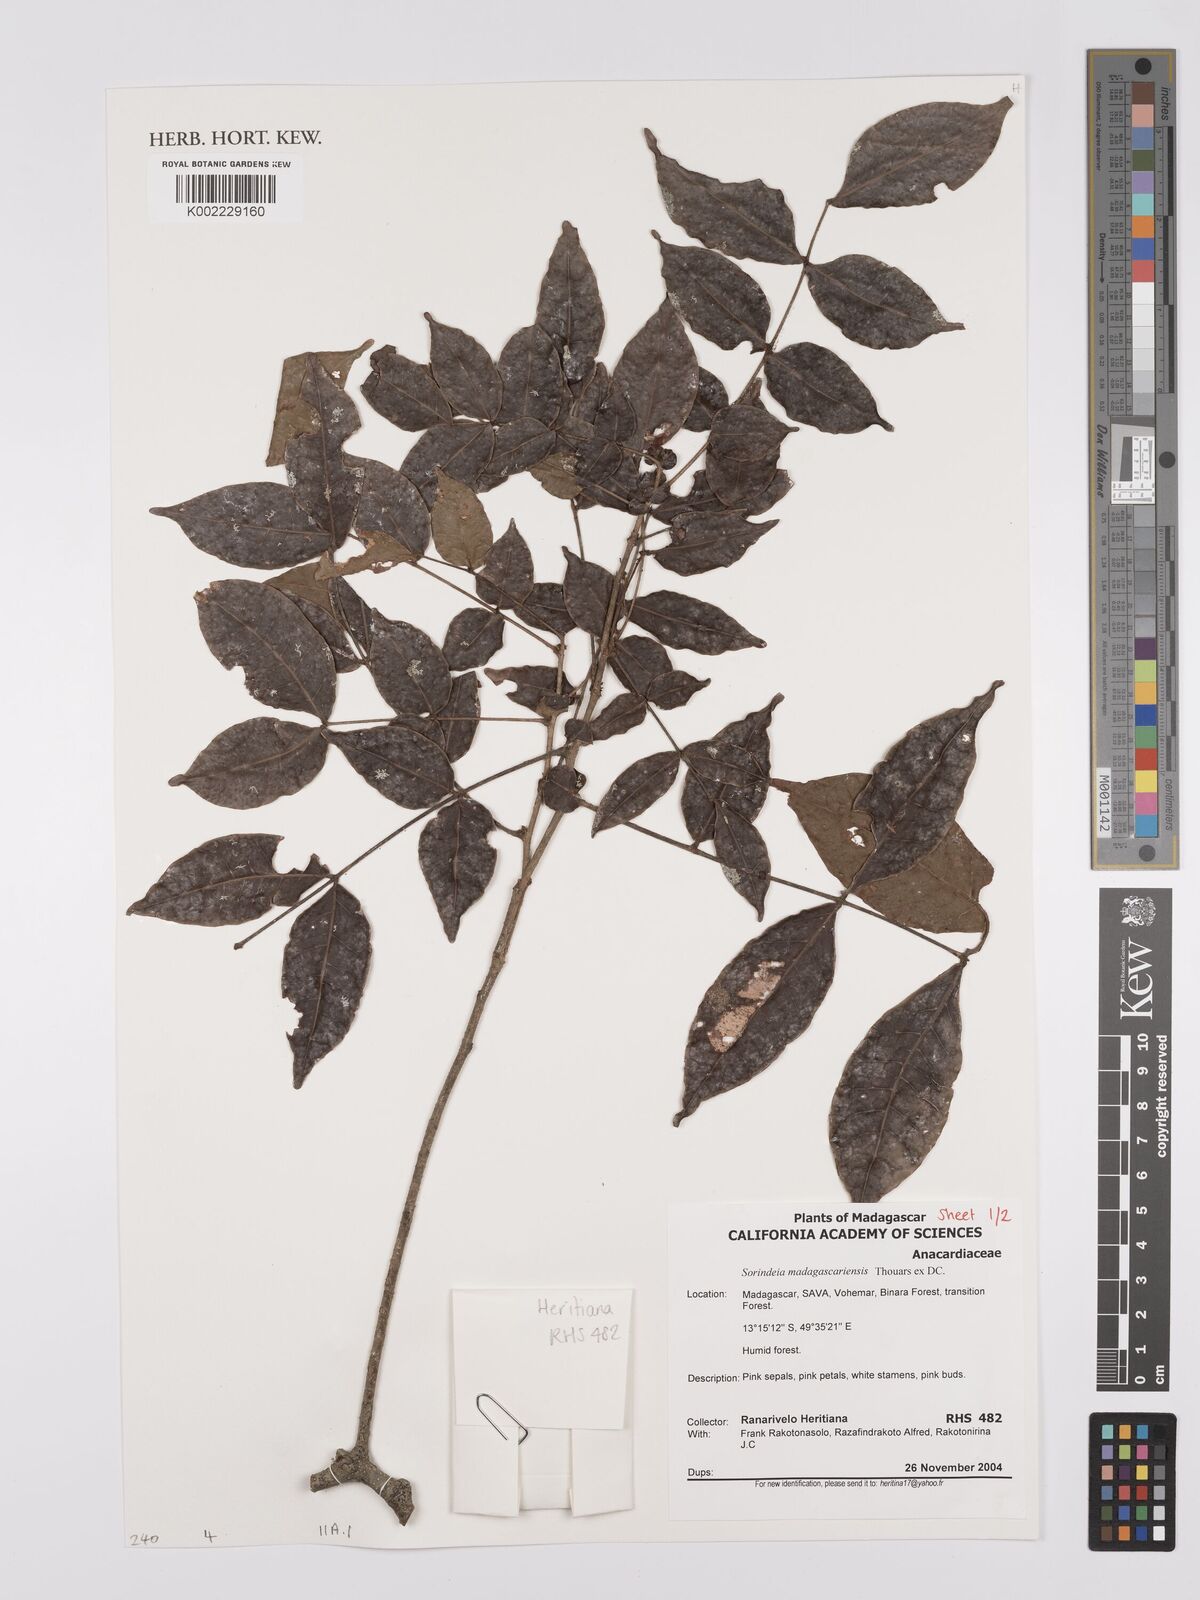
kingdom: Plantae
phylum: Tracheophyta
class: Magnoliopsida
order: Sapindales
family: Anacardiaceae
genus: Sorindeia
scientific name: Sorindeia madagascariensis
